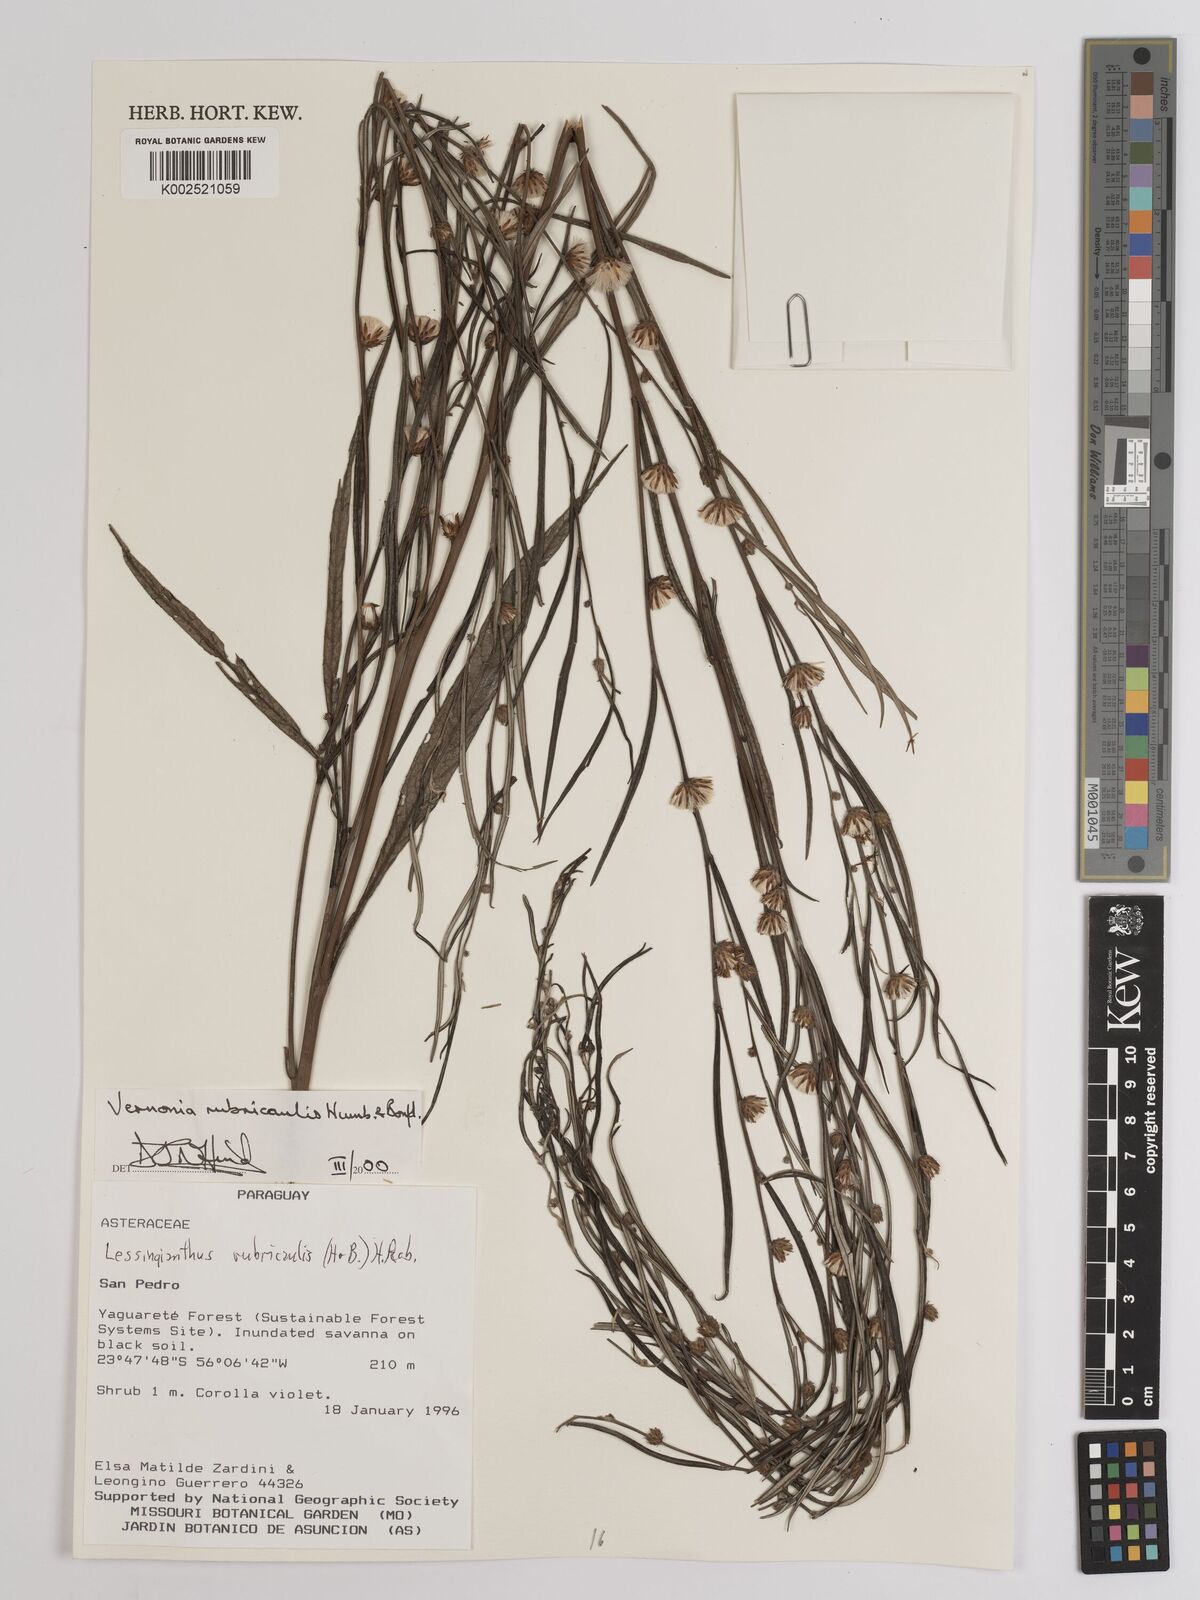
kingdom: Plantae
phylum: Tracheophyta
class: Magnoliopsida
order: Asterales
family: Asteraceae
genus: Lessingianthus
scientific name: Lessingianthus rubricaulis
